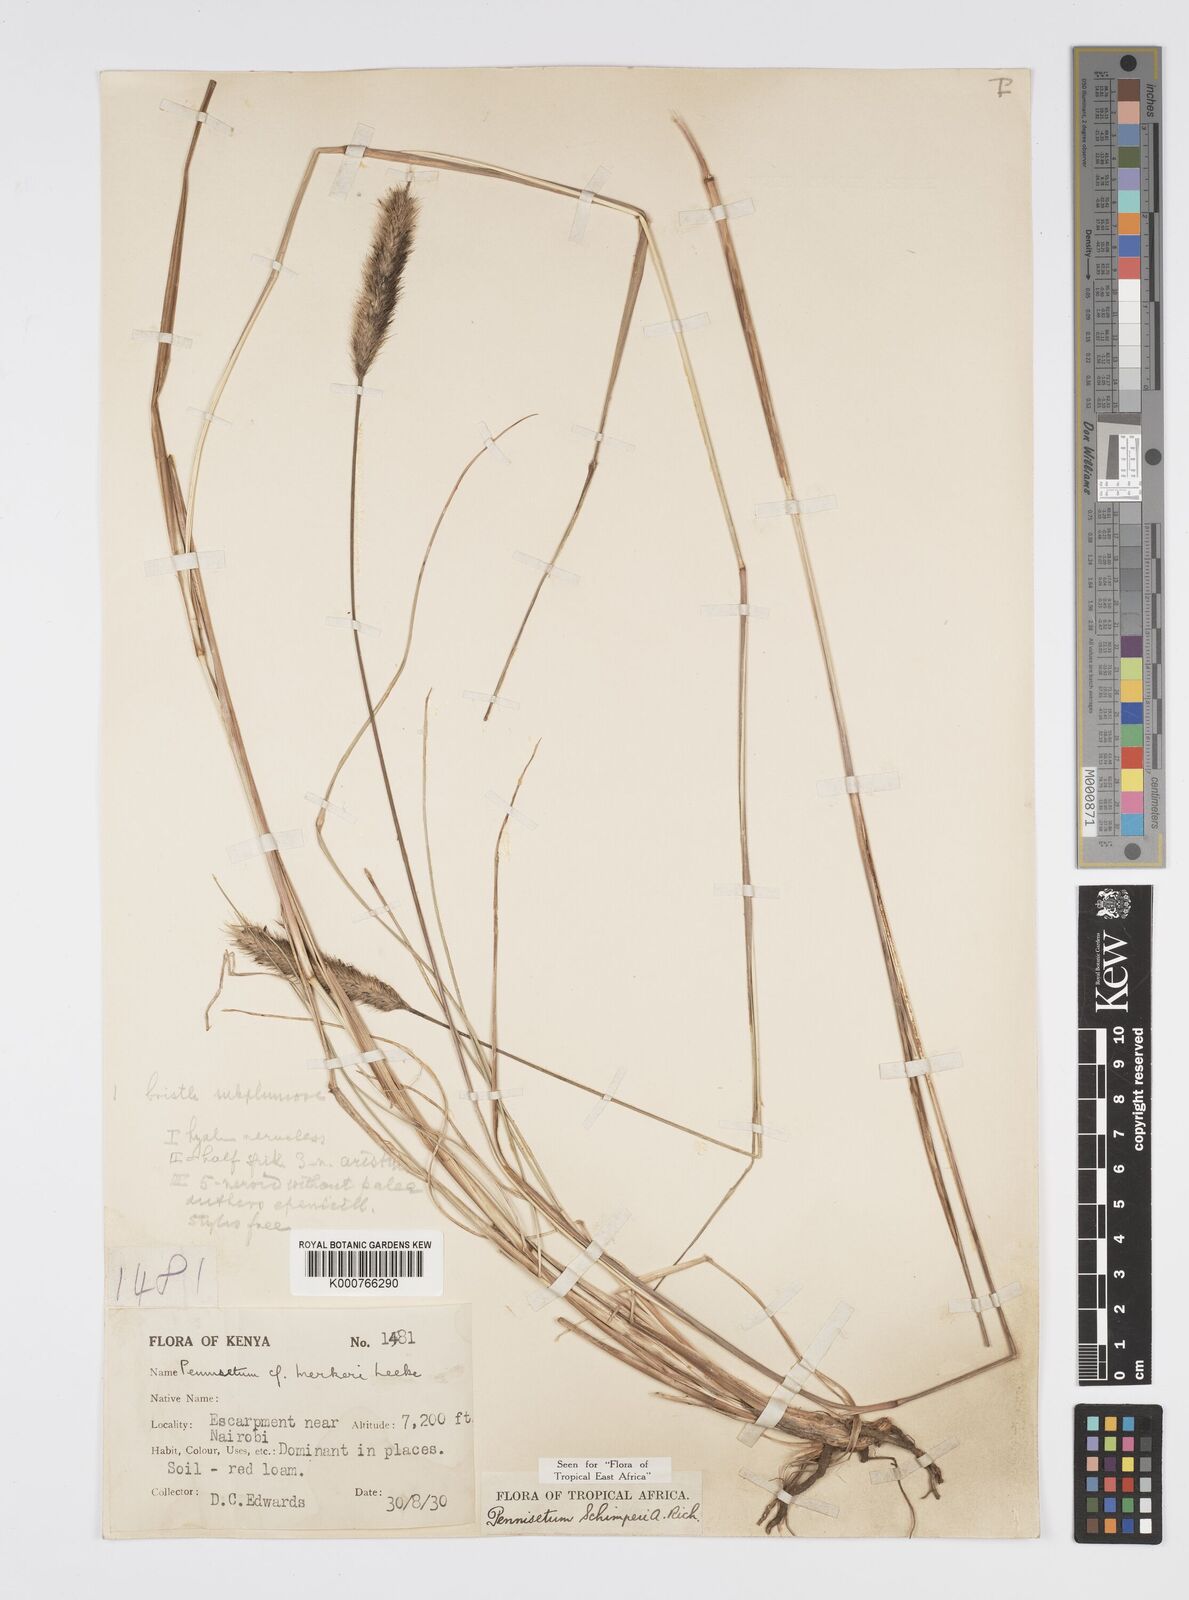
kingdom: Plantae
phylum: Tracheophyta
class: Liliopsida
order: Poales
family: Poaceae
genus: Cenchrus
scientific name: Cenchrus sphacelatus
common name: Bulgras
